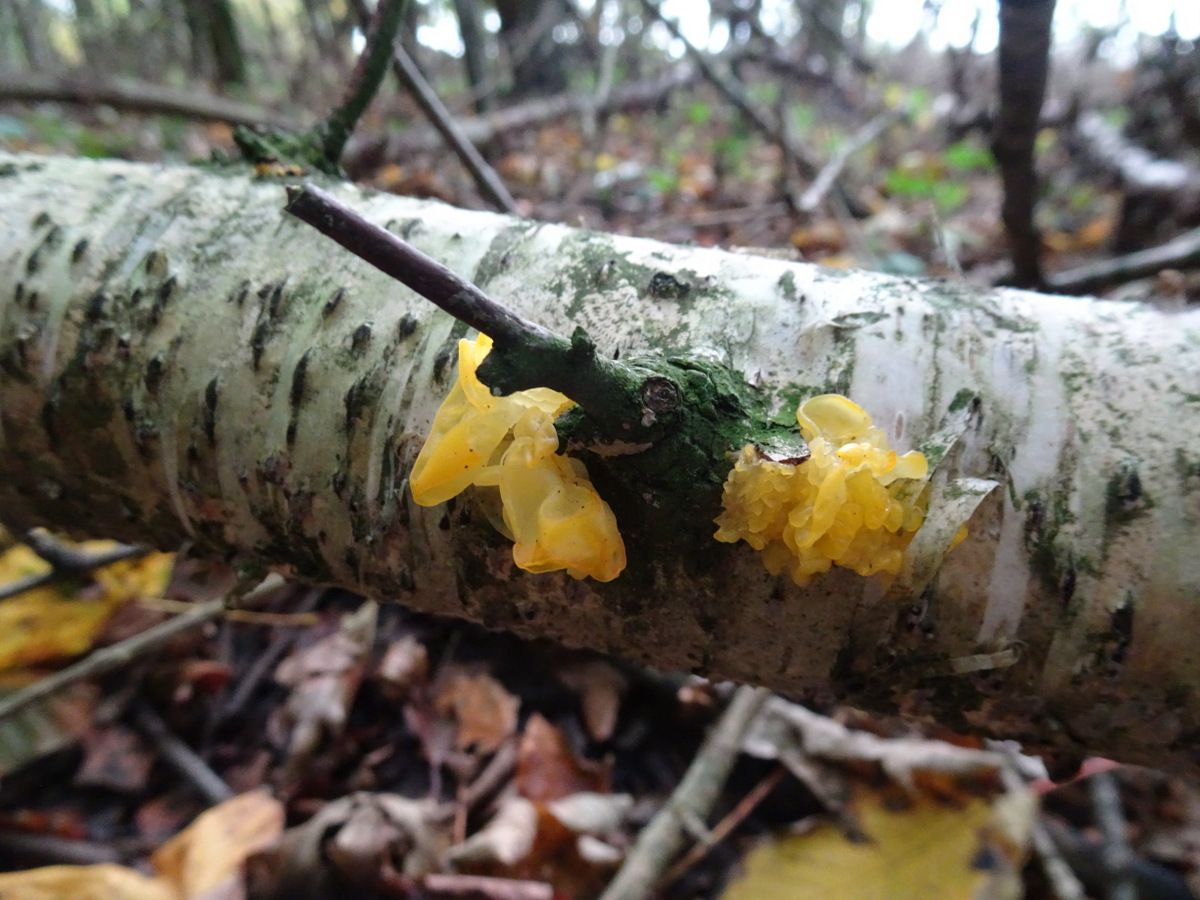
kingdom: Fungi
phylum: Basidiomycota
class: Tremellomycetes
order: Tremellales
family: Tremellaceae
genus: Tremella
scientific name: Tremella mesenterica
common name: gul bævresvamp
